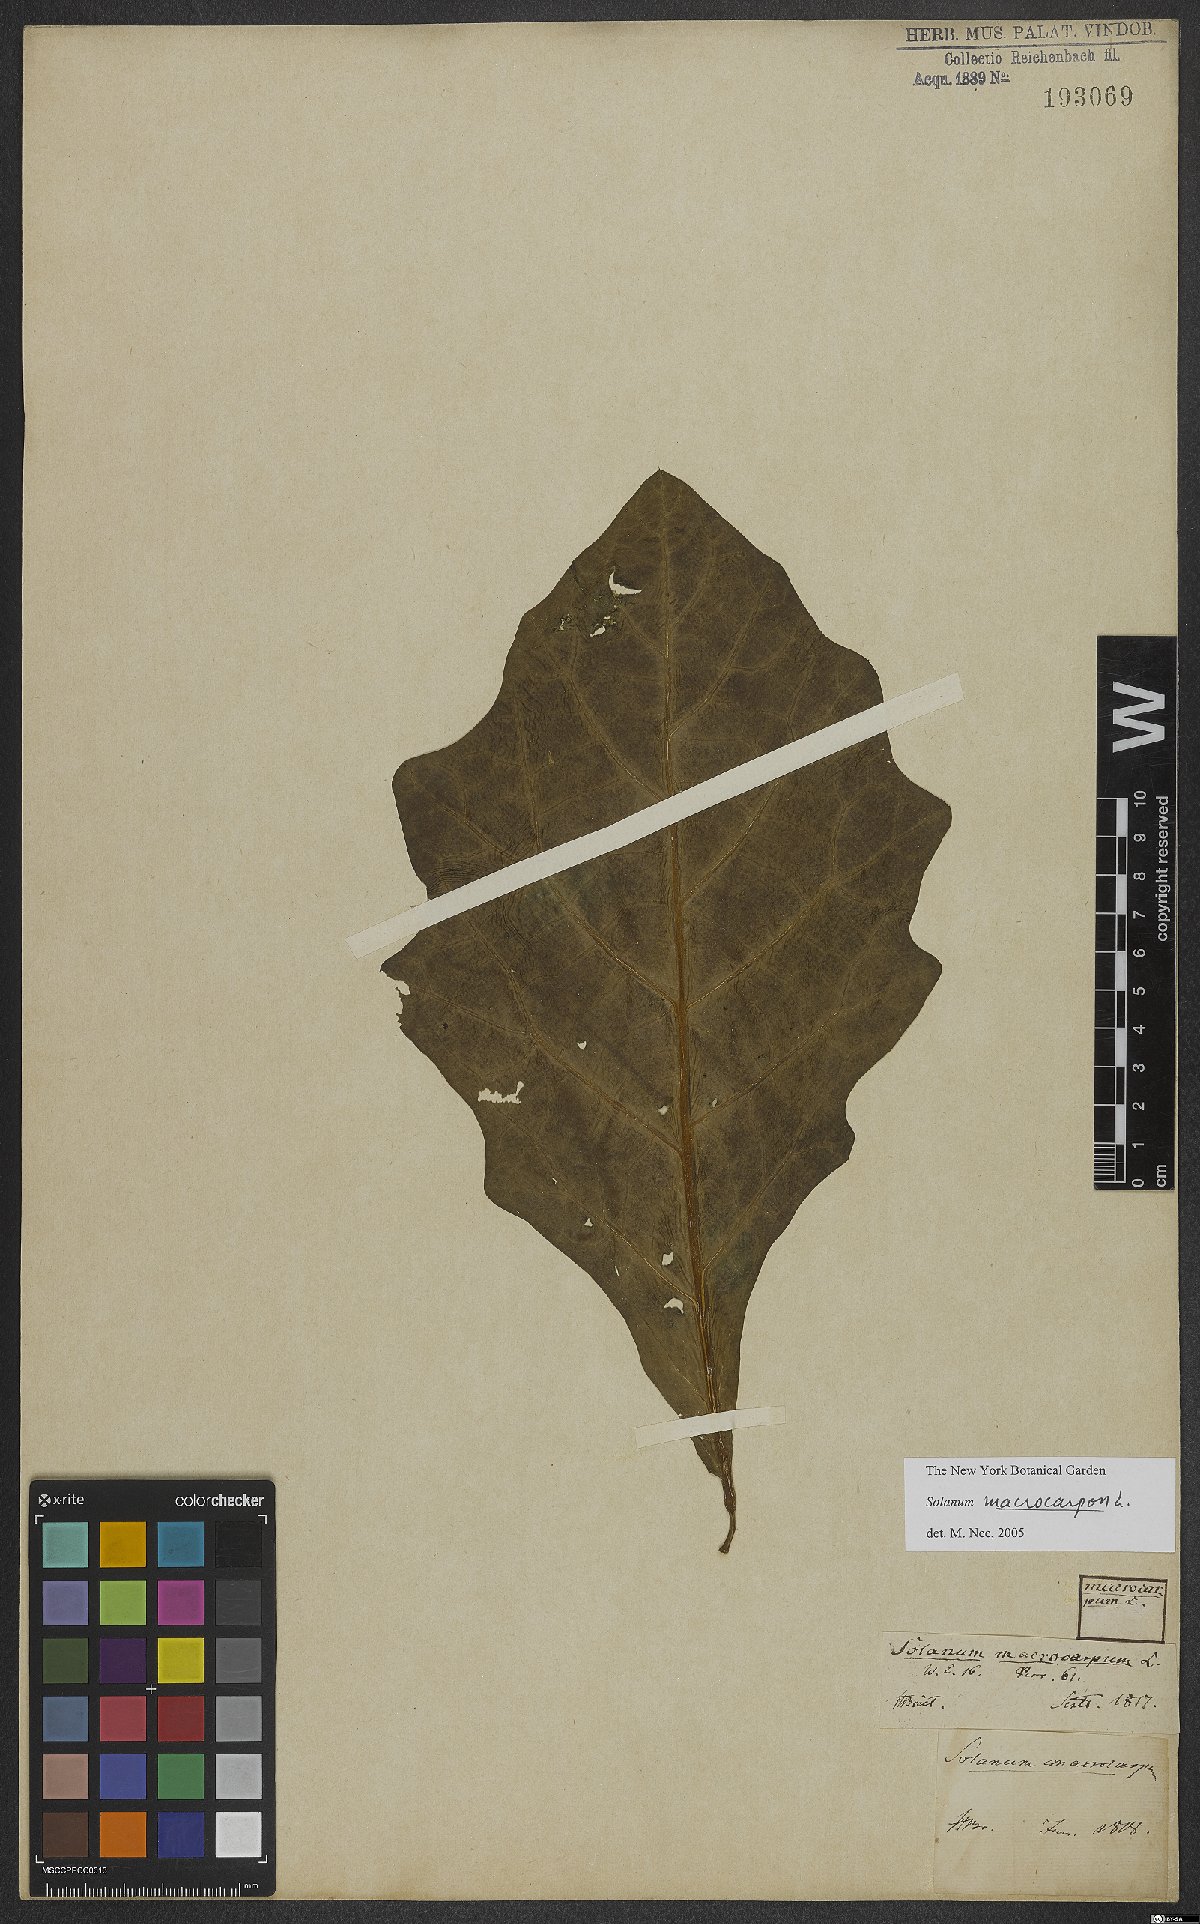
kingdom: Plantae
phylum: Tracheophyta
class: Magnoliopsida
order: Solanales
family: Solanaceae
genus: Solanum
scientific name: Solanum macrocarpon
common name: African eggplant
